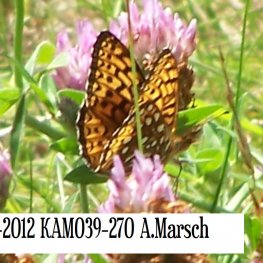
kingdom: Animalia
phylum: Arthropoda
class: Insecta
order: Lepidoptera
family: Nymphalidae
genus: Speyeria
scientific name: Speyeria atlantis
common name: Atlantis Fritillary
